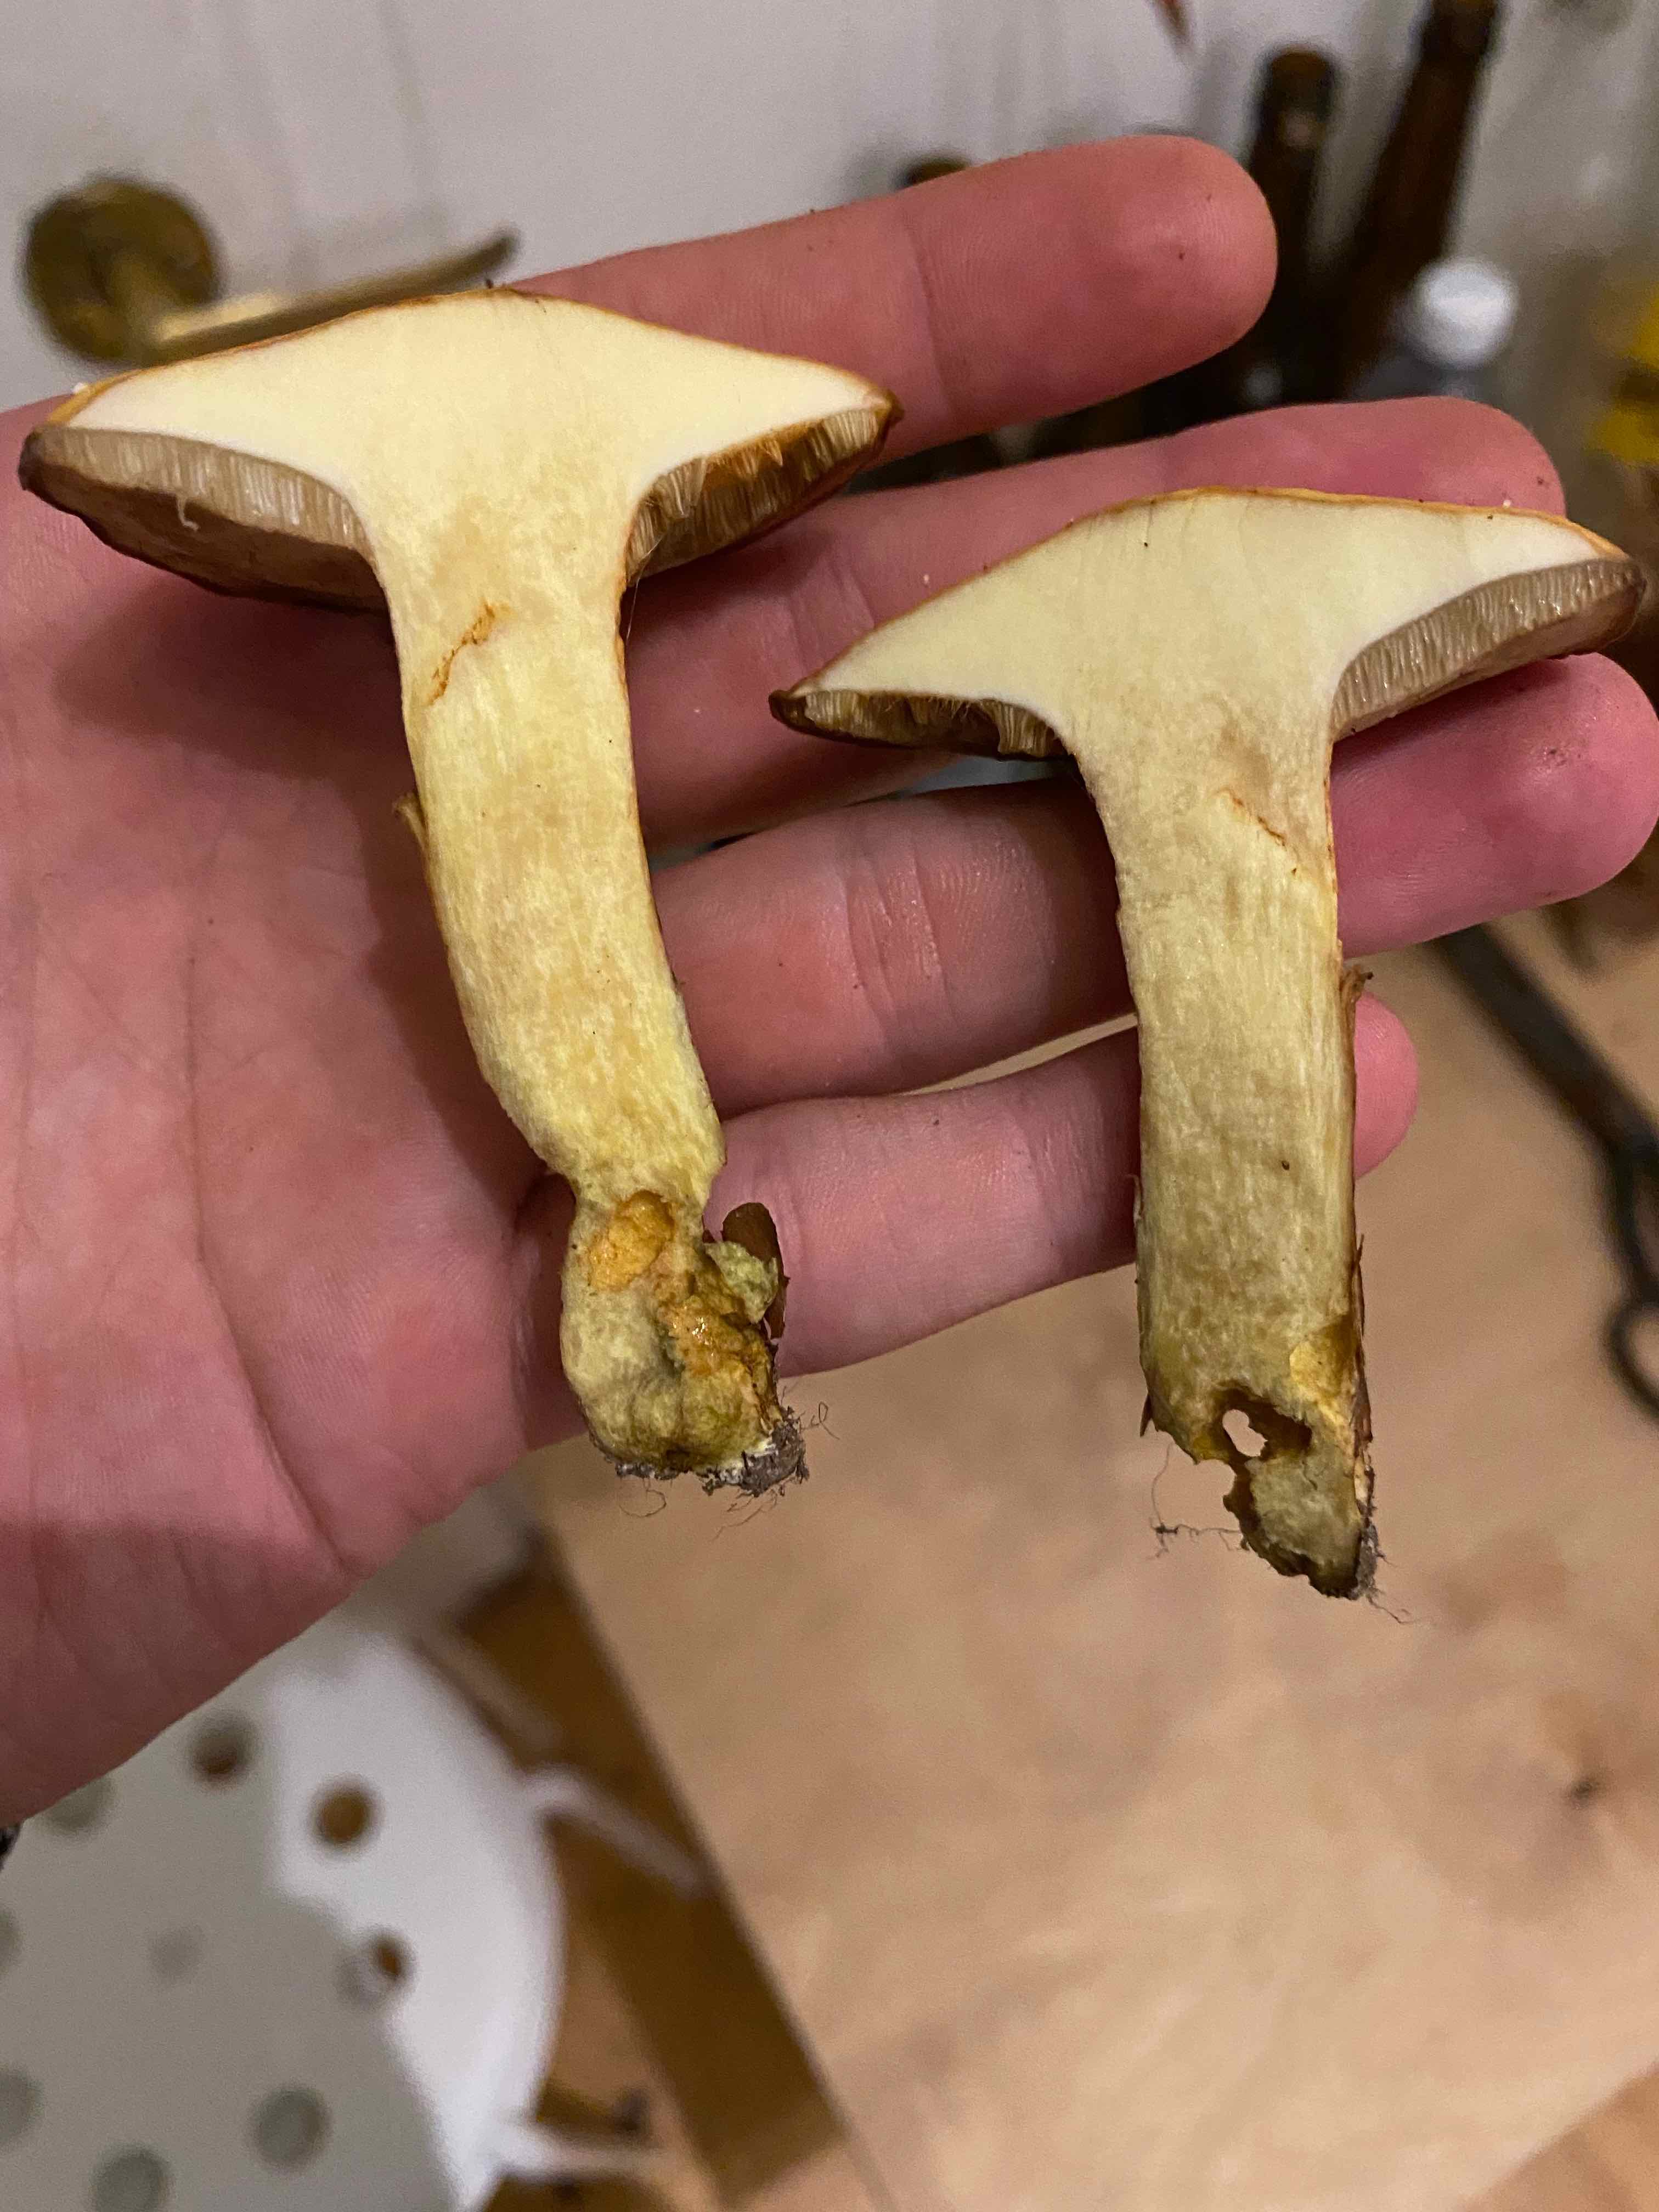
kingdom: Fungi
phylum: Basidiomycota
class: Agaricomycetes
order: Boletales
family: Suillaceae
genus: Suillus
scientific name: Suillus grevillei
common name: lærke-slimrørhat
